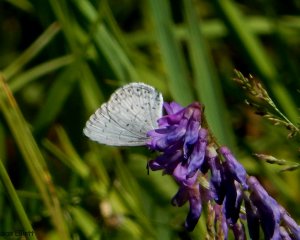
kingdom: Animalia
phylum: Arthropoda
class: Insecta
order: Lepidoptera
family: Lycaenidae
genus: Celastrina
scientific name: Celastrina
